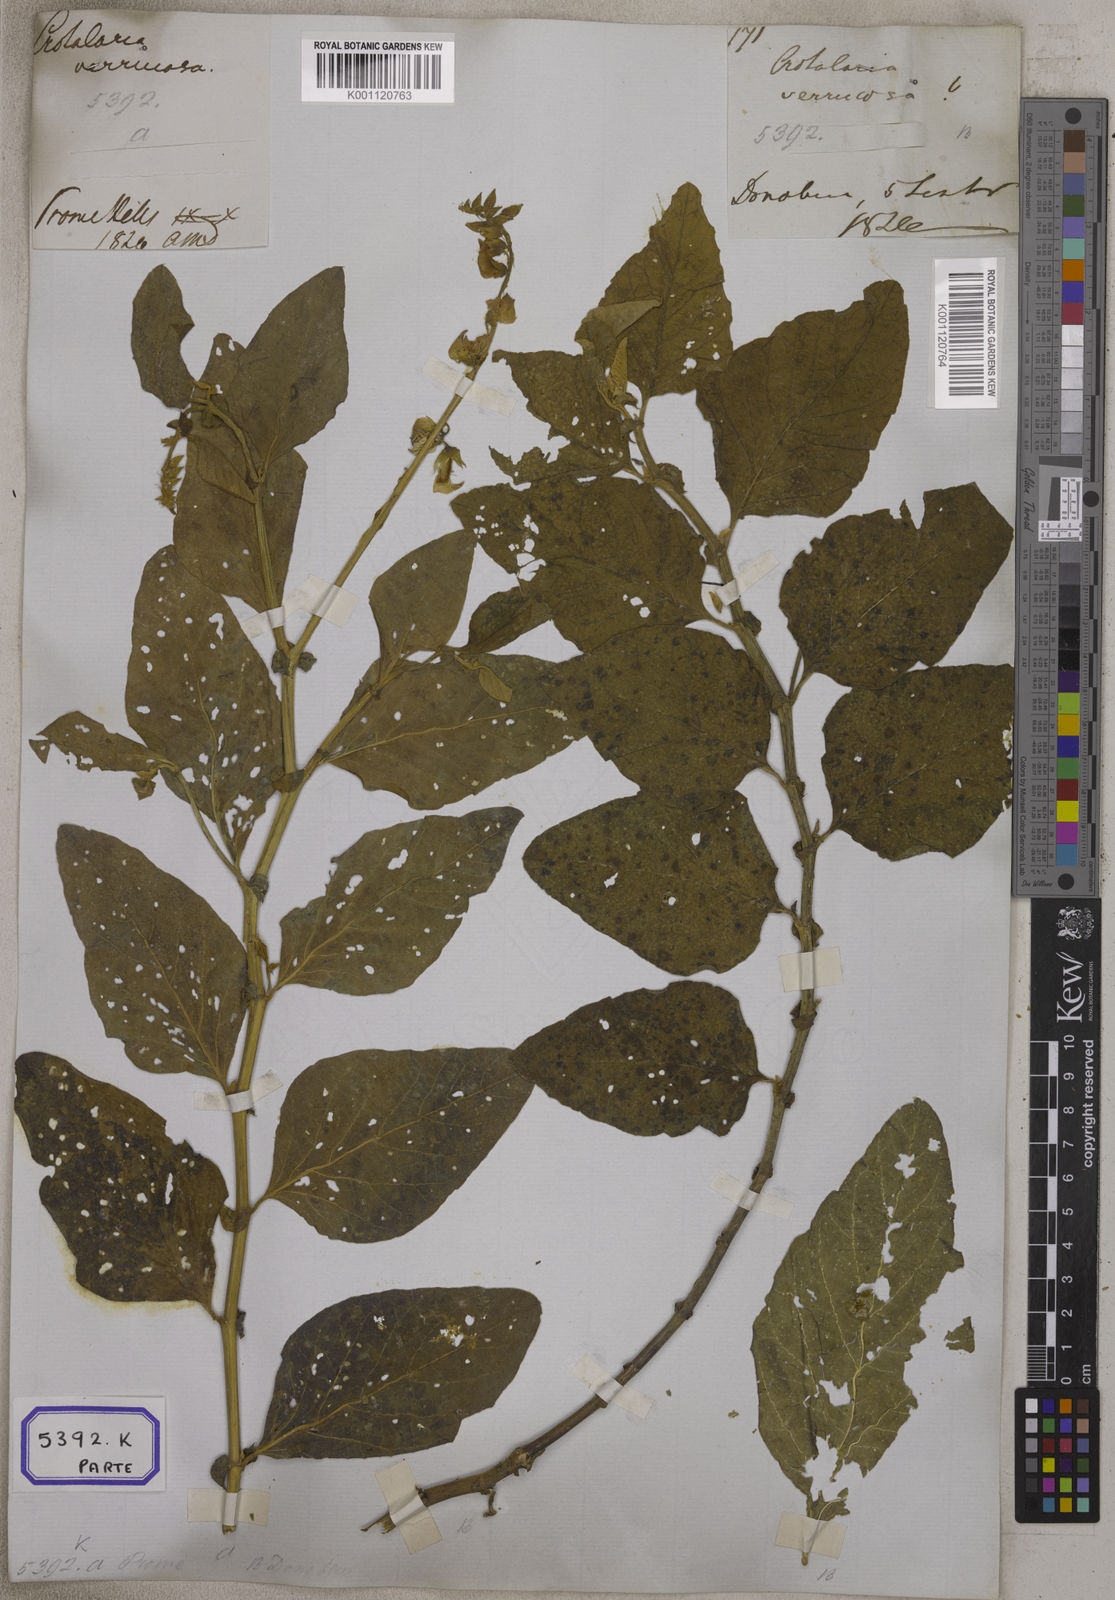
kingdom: Plantae
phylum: Tracheophyta
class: Magnoliopsida
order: Fabales
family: Fabaceae
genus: Crotalaria
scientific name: Crotalaria verrucosa
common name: Blue rattlesnake
